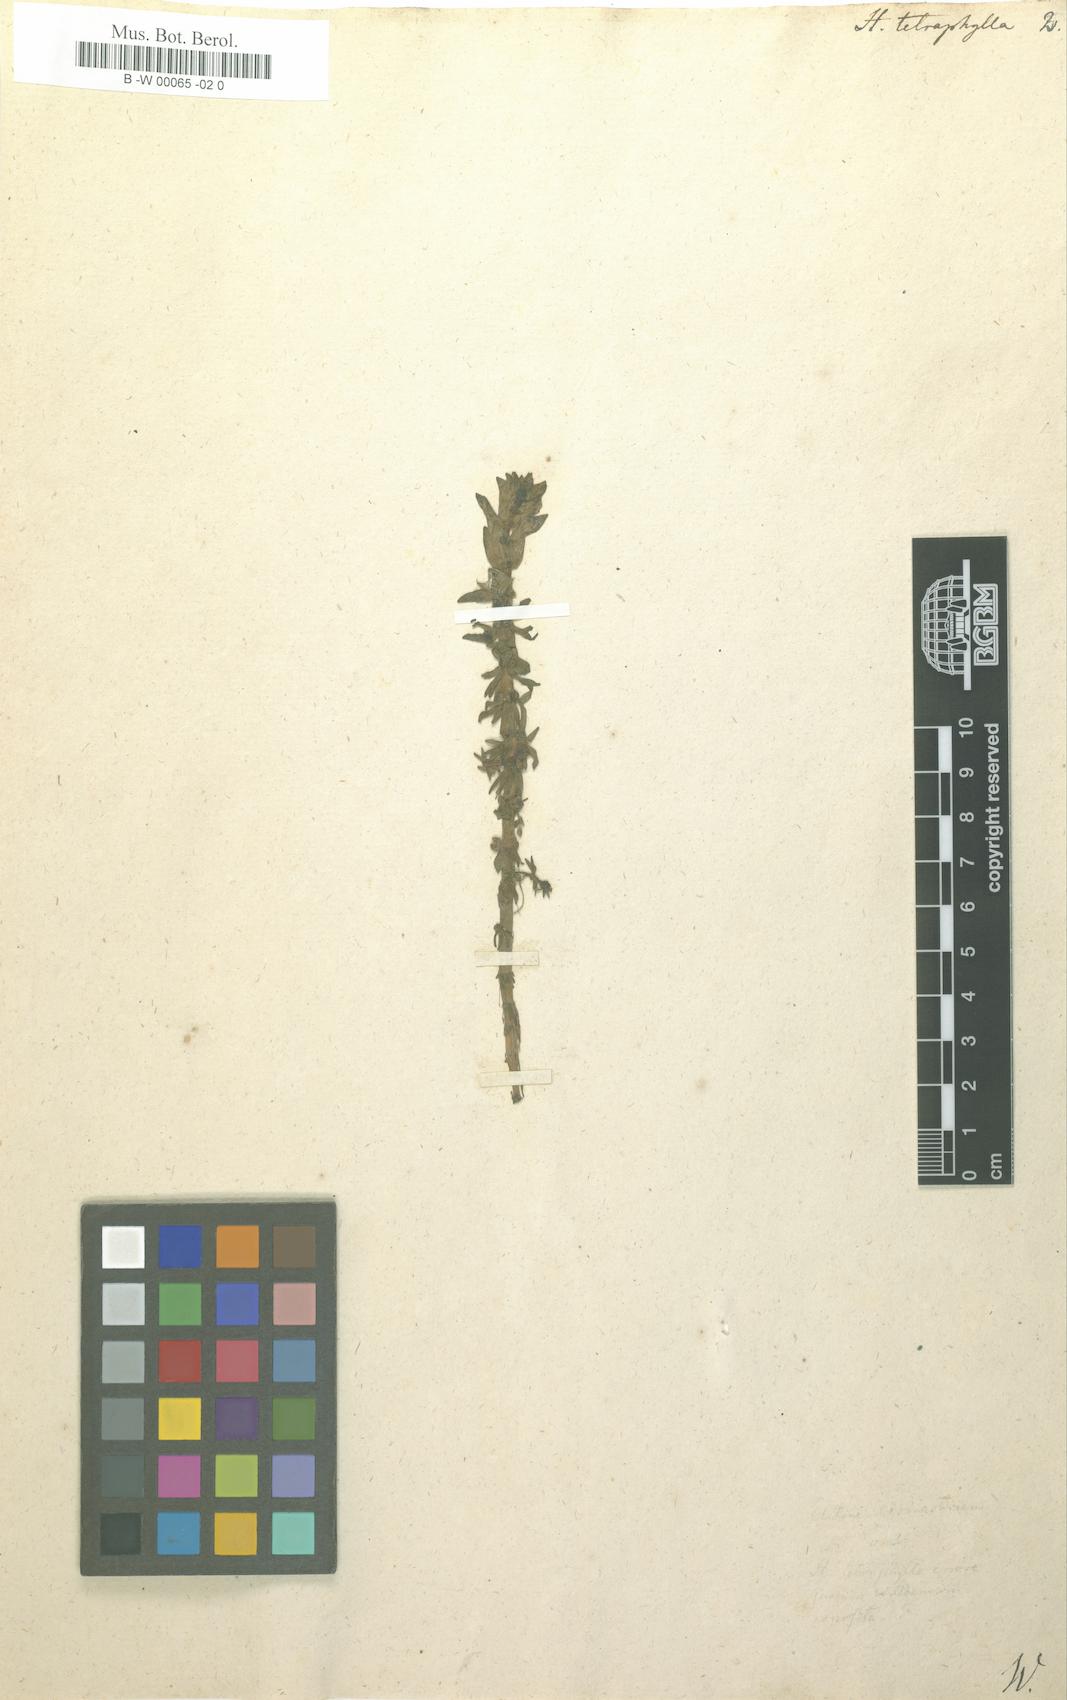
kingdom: Plantae
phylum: Tracheophyta
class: Magnoliopsida
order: Lamiales
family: Plantaginaceae
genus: Hippuris
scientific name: Hippuris tetraphylla
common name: Four-leaved mare's-tail
